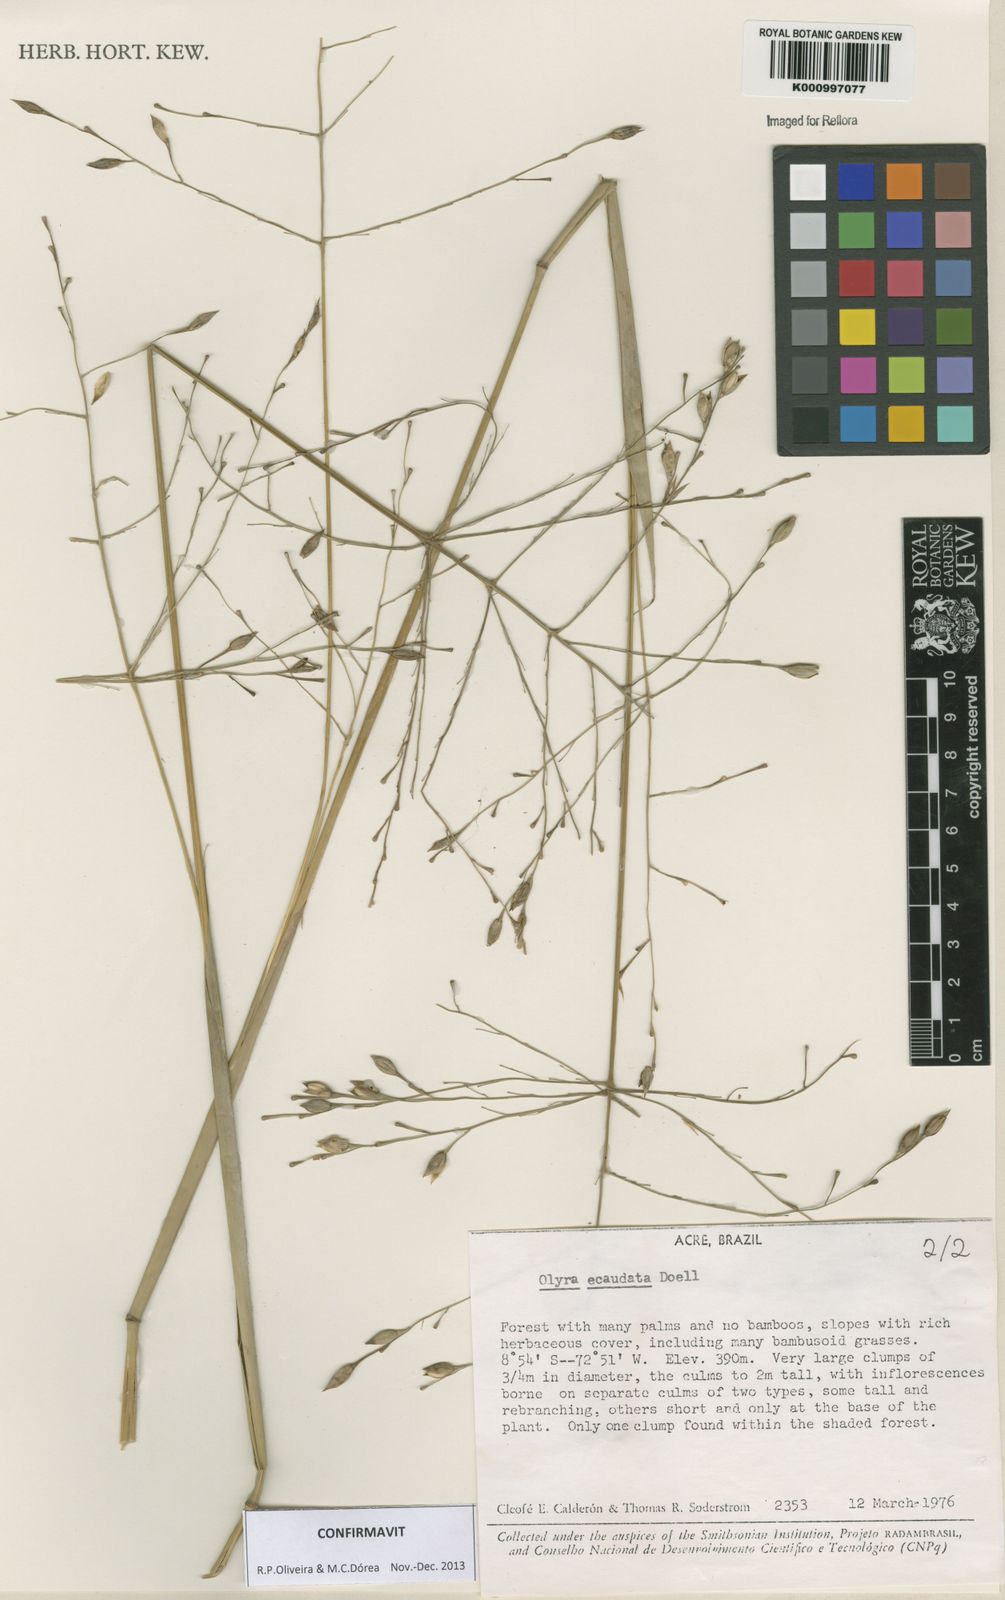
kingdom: Plantae
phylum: Tracheophyta
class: Liliopsida
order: Poales
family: Poaceae
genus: Olyra
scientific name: Olyra
